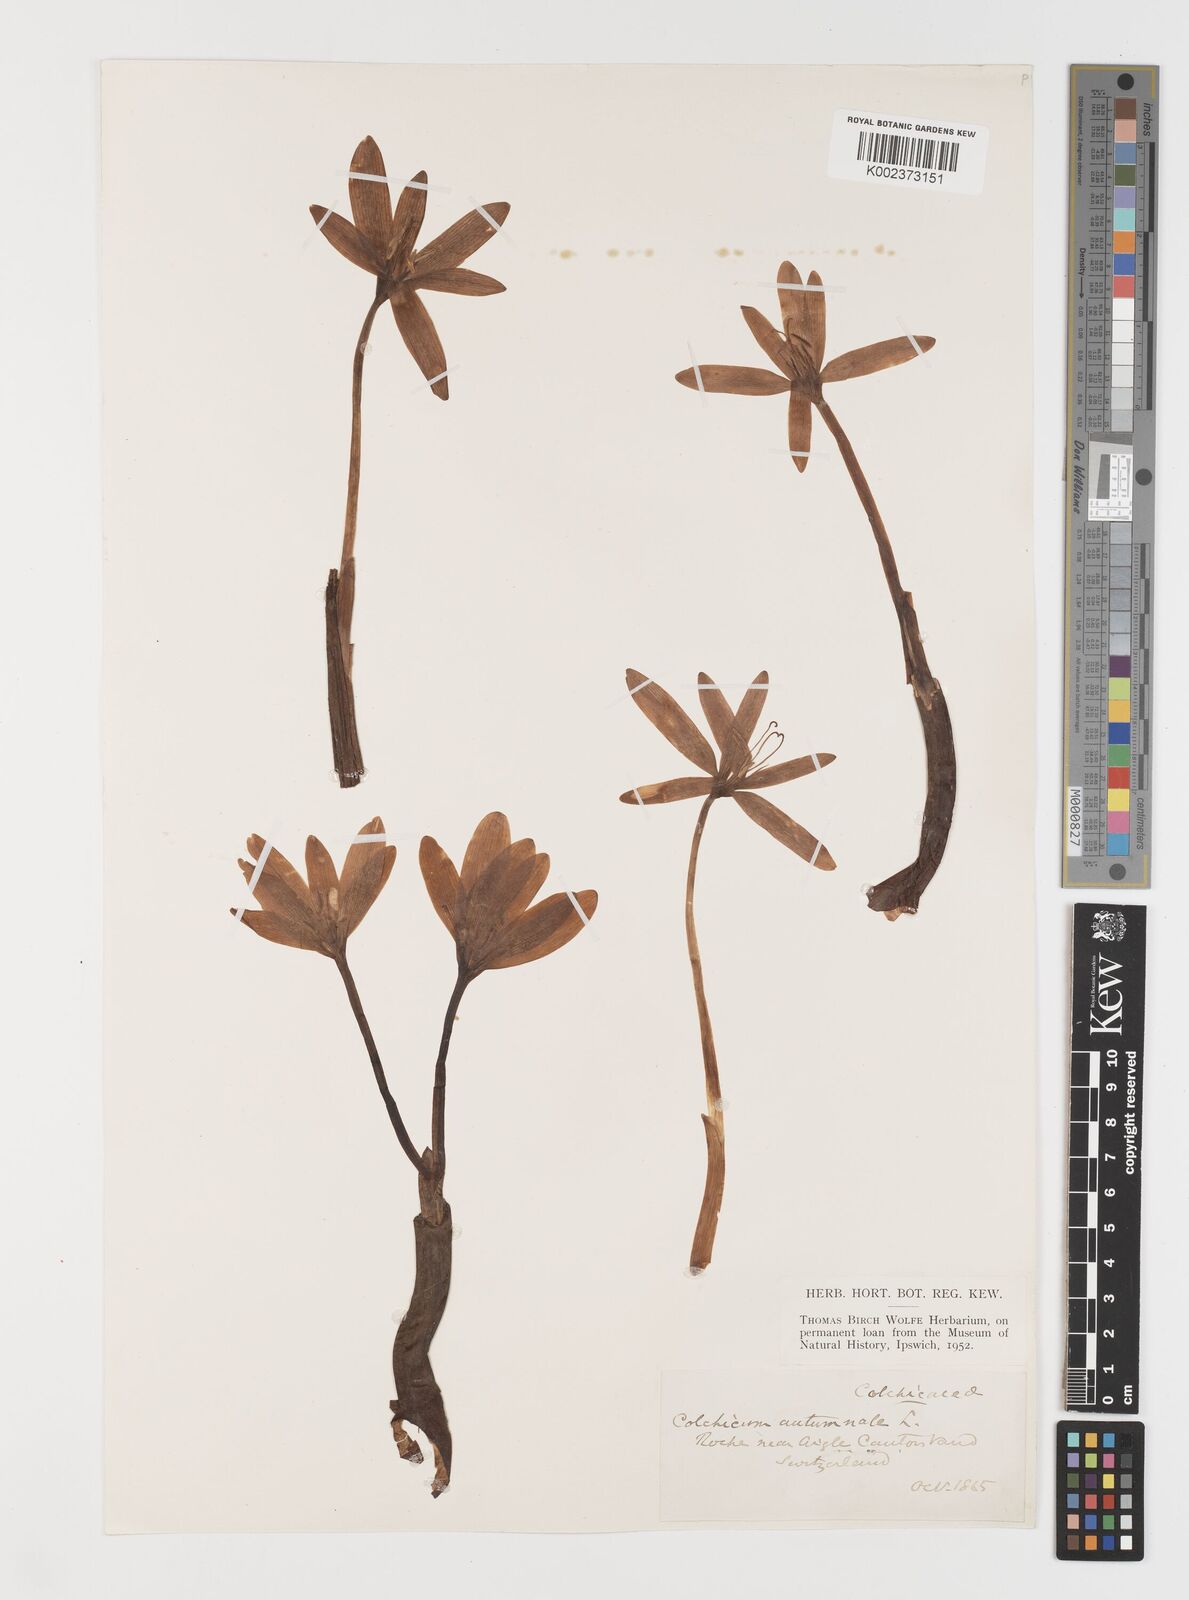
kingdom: Plantae
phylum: Tracheophyta
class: Liliopsida
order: Liliales
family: Colchicaceae
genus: Colchicum
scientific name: Colchicum autumnale
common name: Autumn crocus
